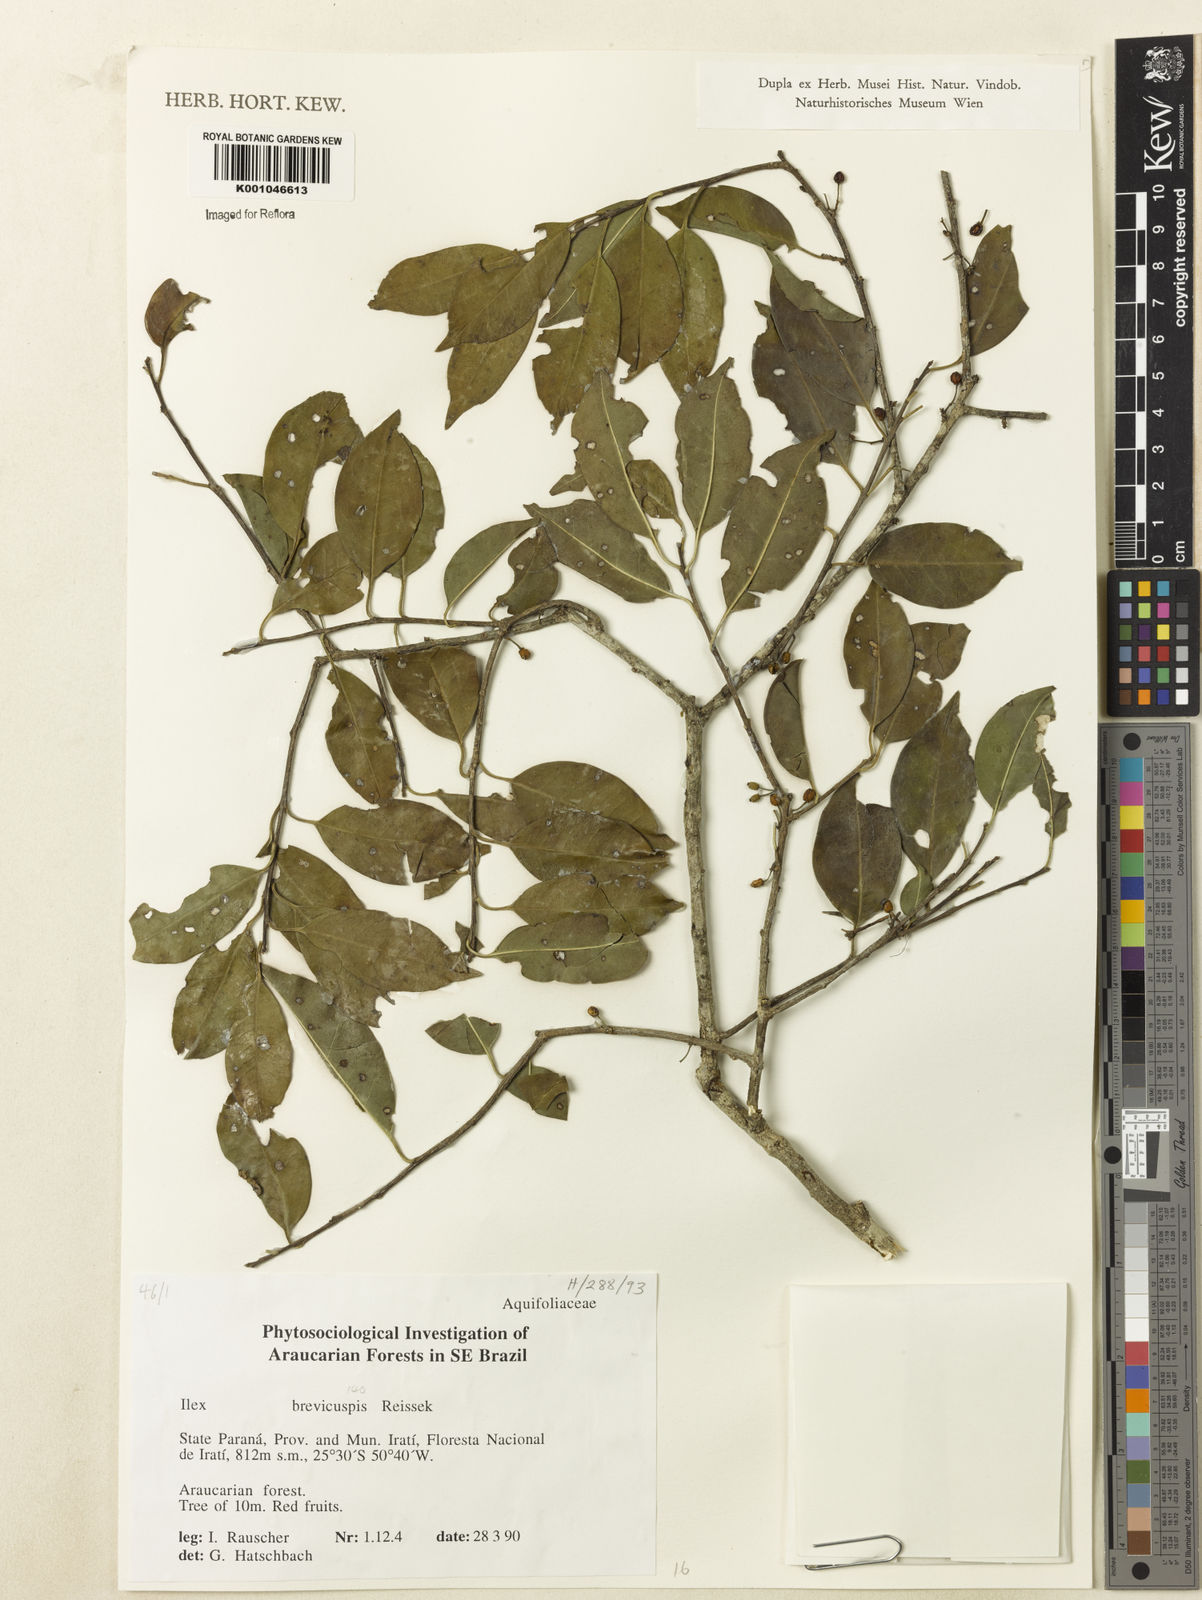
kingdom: Plantae
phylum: Tracheophyta
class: Magnoliopsida
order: Aquifoliales
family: Aquifoliaceae
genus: Ilex
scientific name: Ilex brevicuspis
